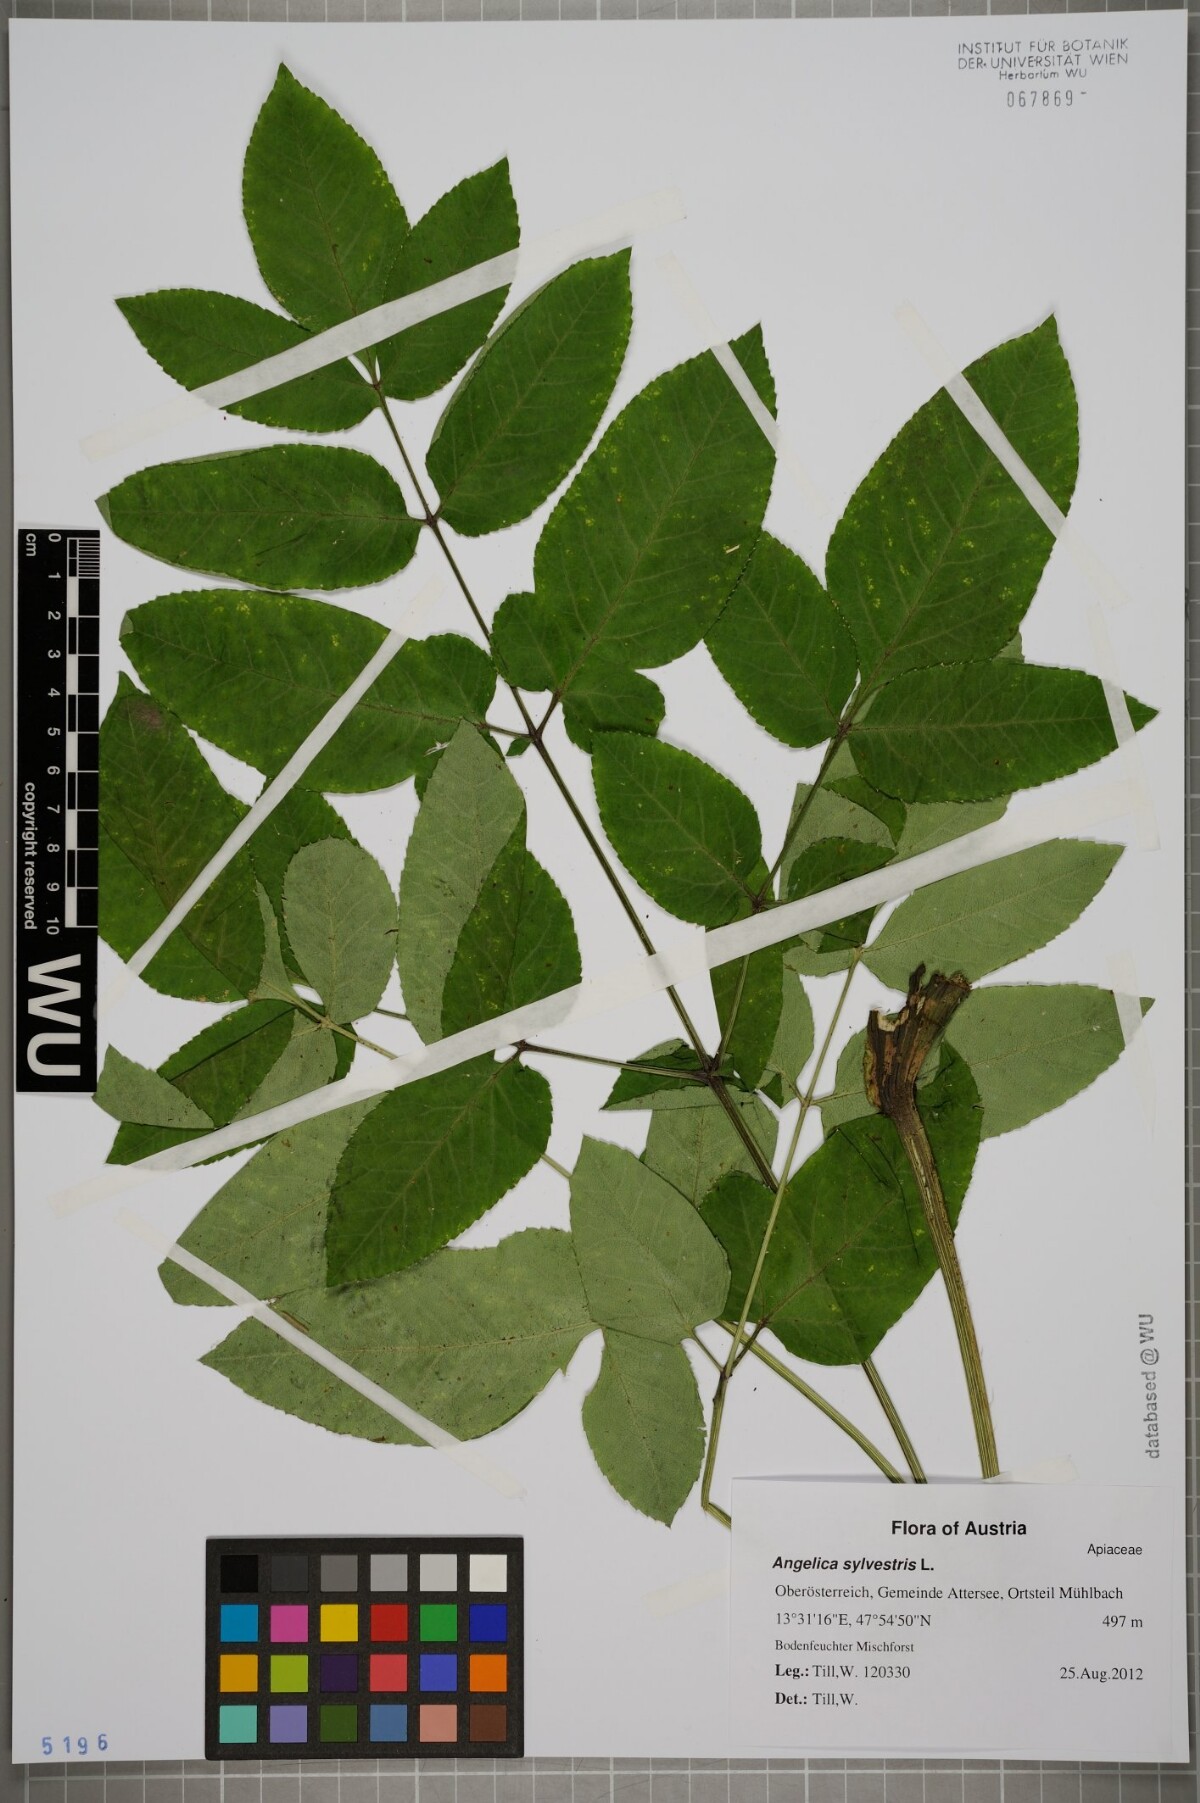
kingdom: Plantae
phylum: Tracheophyta
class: Magnoliopsida
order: Apiales
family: Apiaceae
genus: Angelica
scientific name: Angelica sylvestris
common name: Wild angelica
